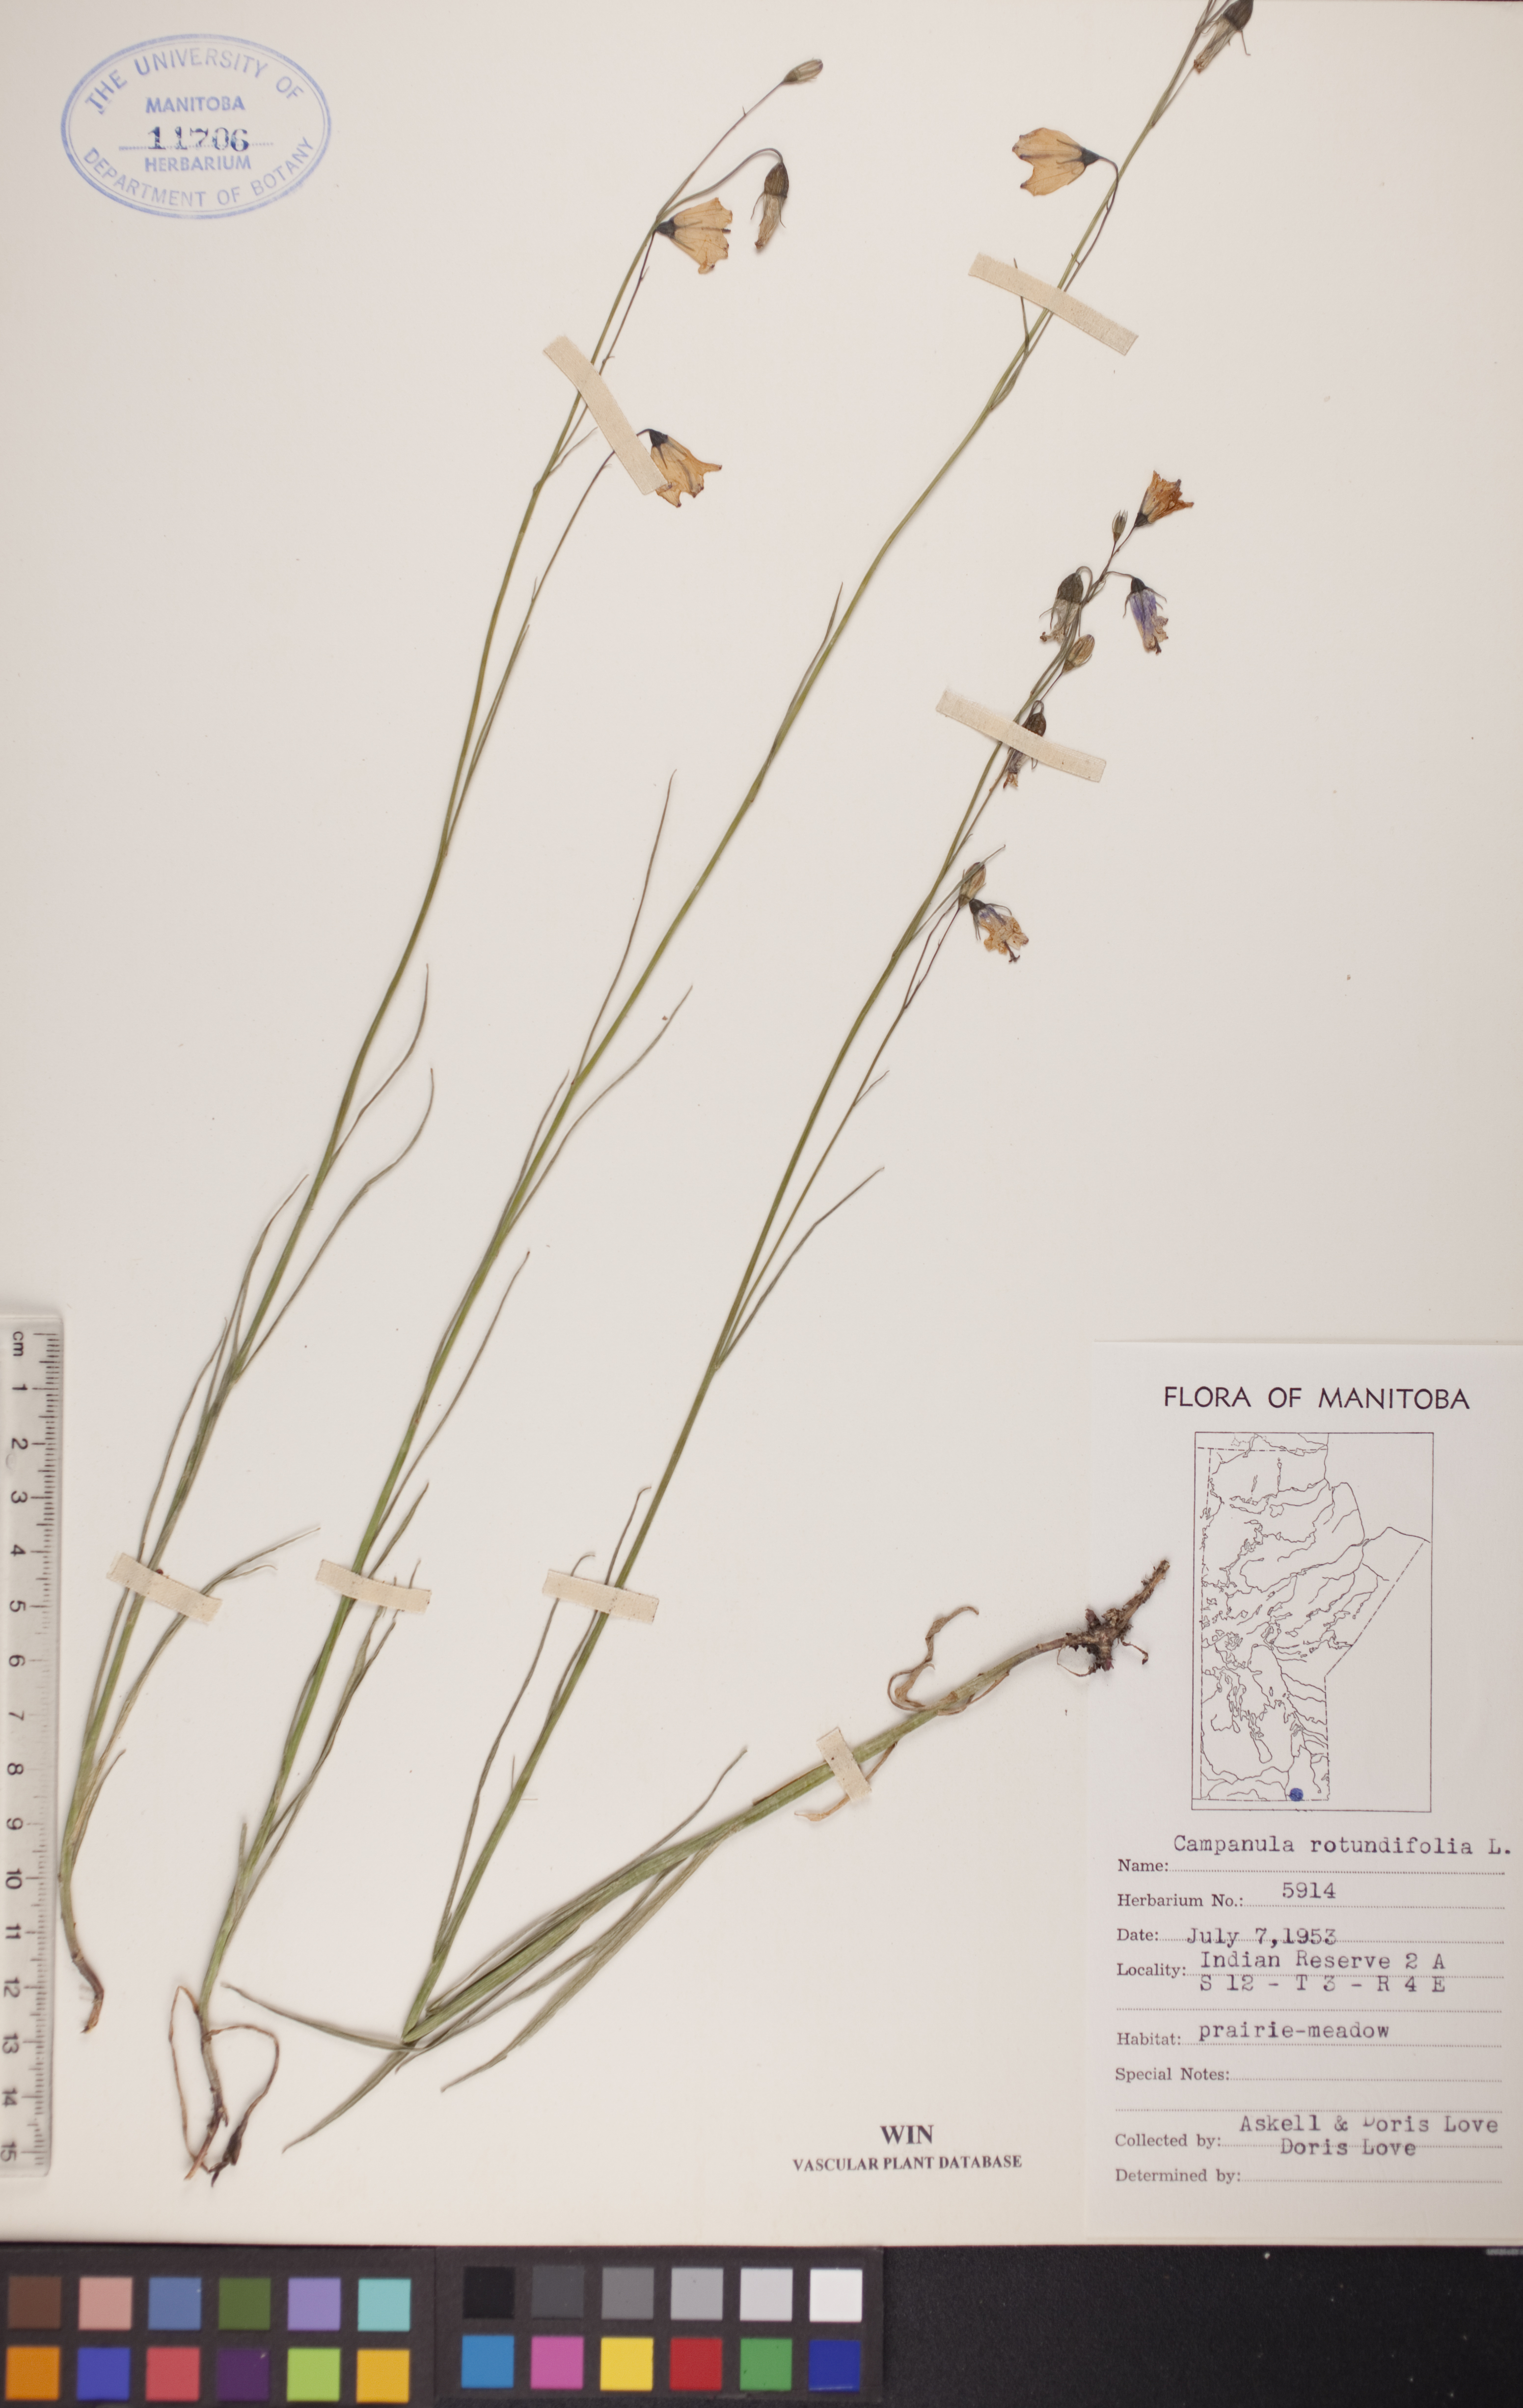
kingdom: Plantae
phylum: Tracheophyta
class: Magnoliopsida
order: Asterales
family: Campanulaceae
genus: Campanula
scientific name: Campanula rotundifolia
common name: Harebell
